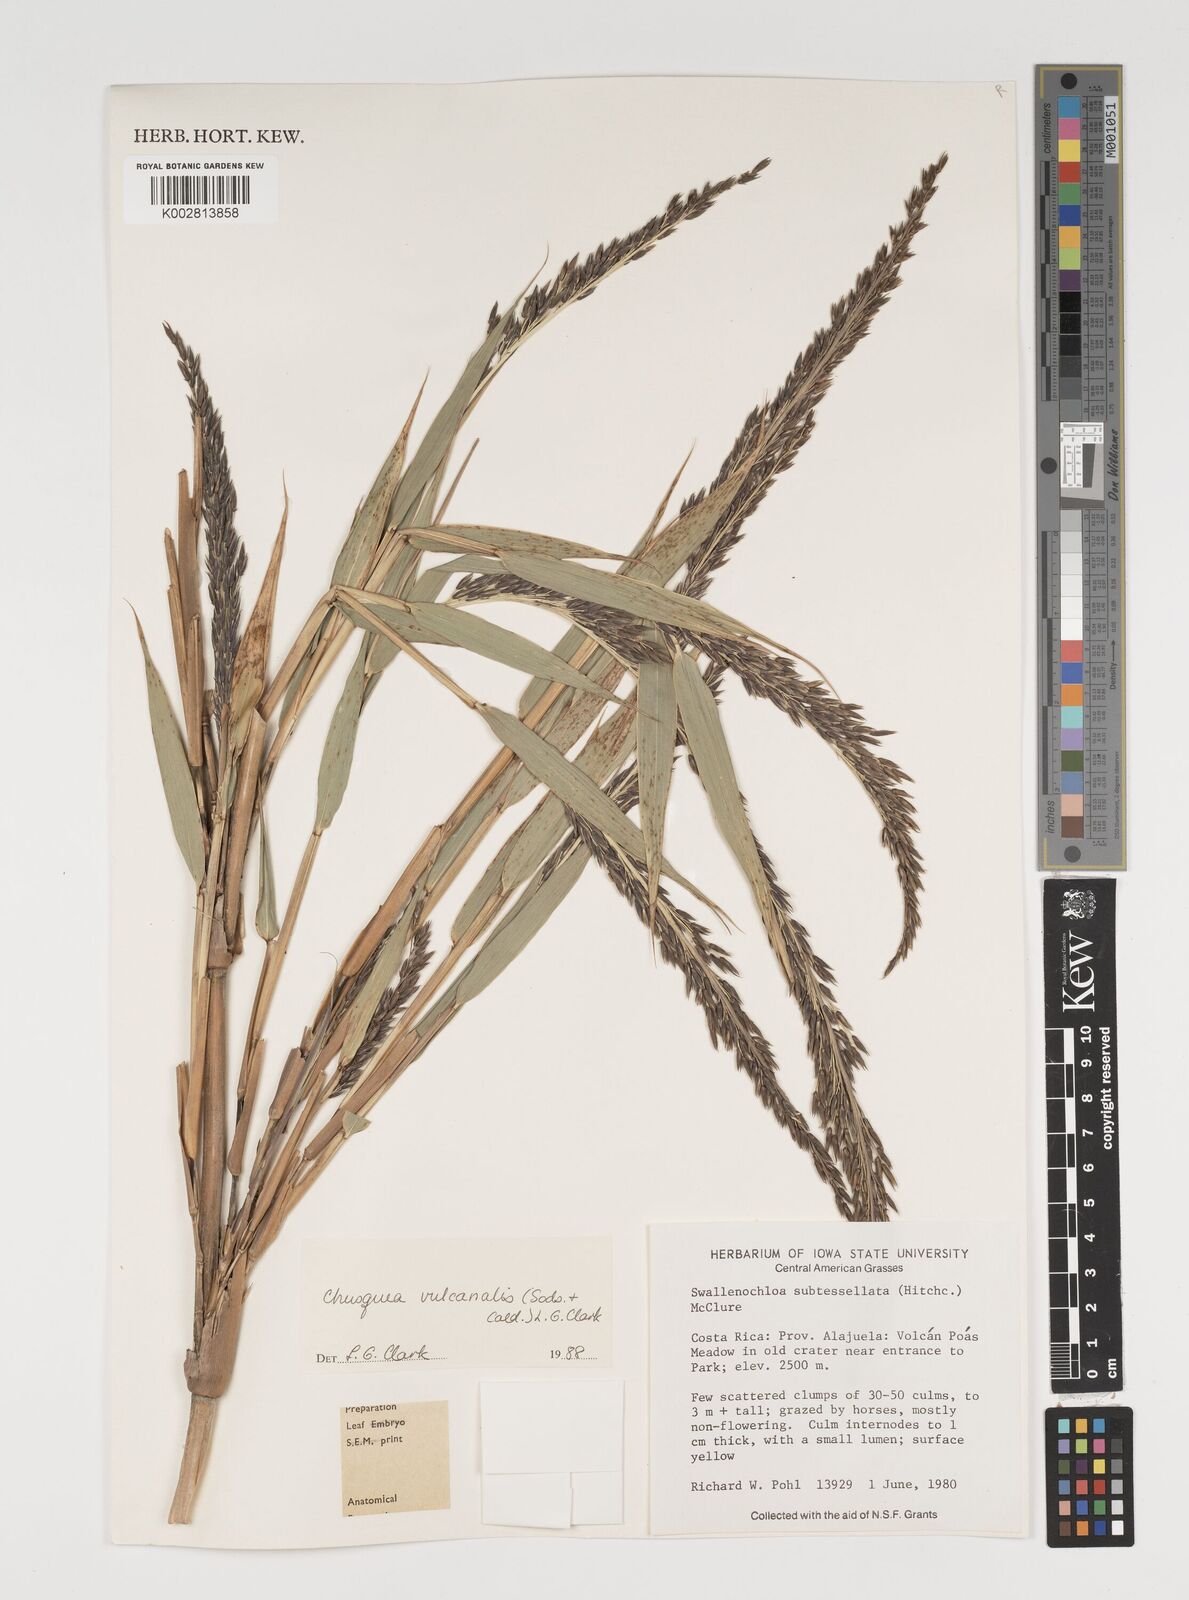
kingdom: Plantae
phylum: Tracheophyta
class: Liliopsida
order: Poales
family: Poaceae
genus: Chusquea
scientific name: Chusquea vulcanalis
